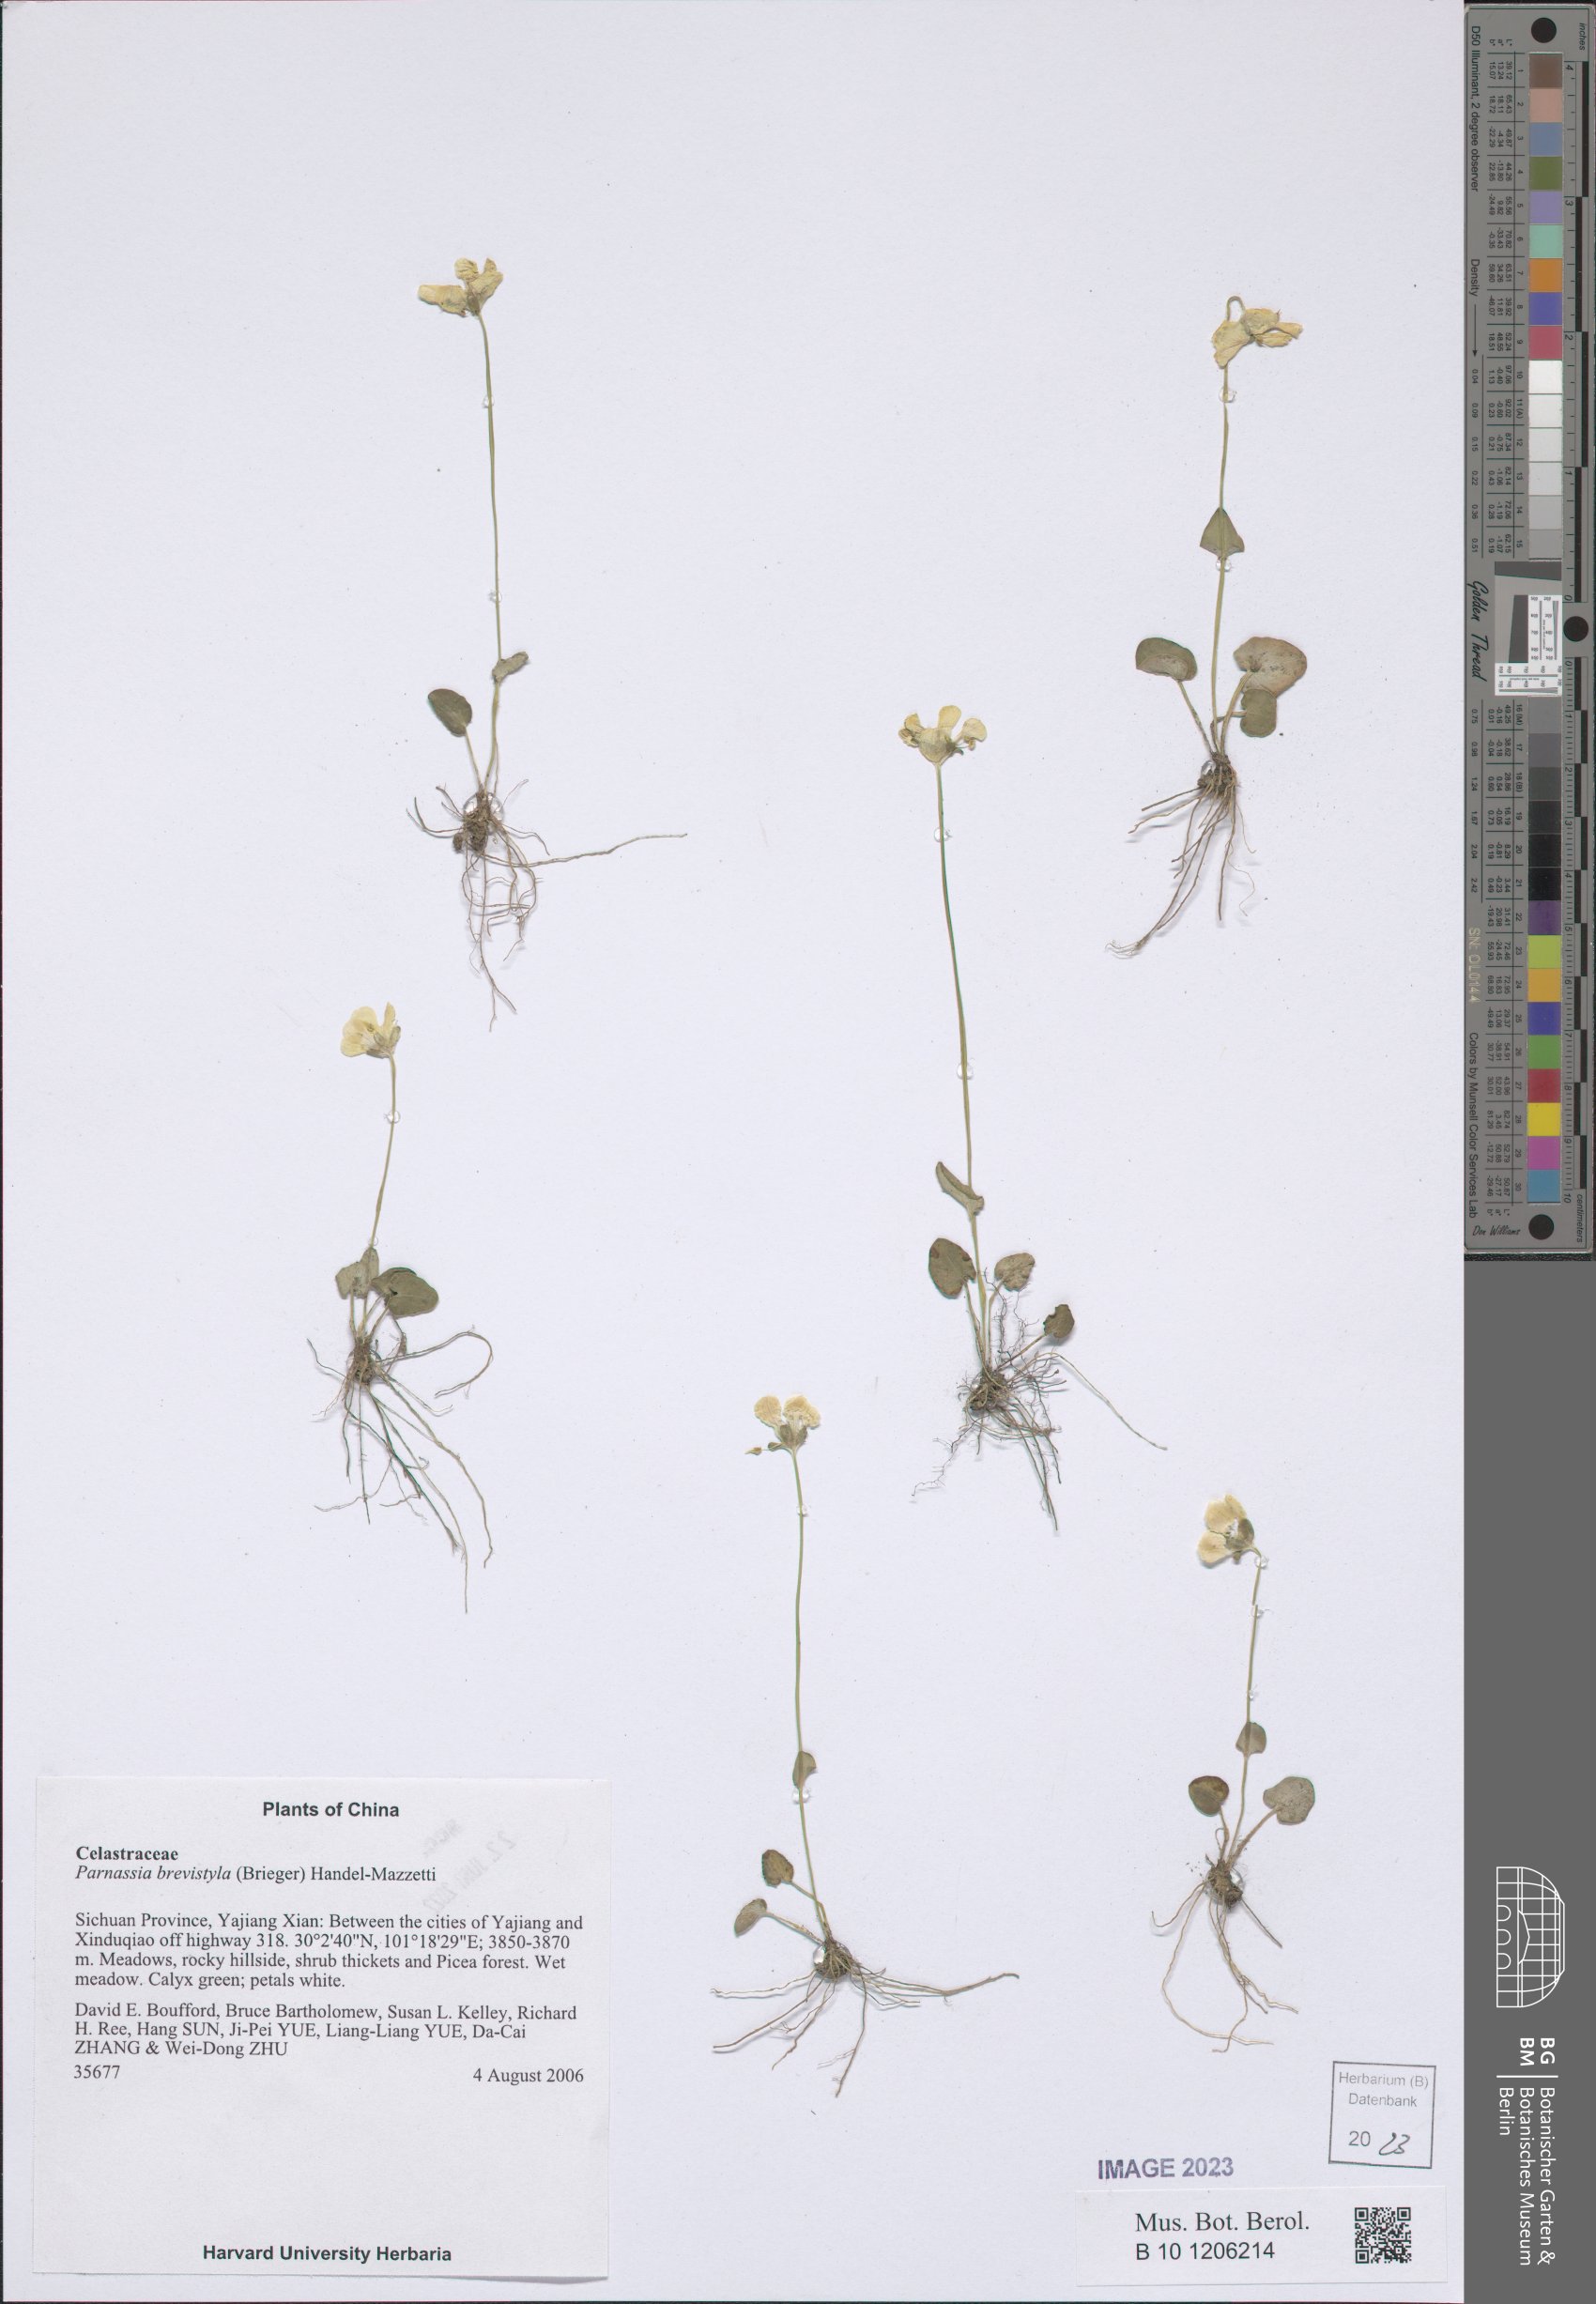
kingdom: Plantae
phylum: Tracheophyta
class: Magnoliopsida
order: Celastrales
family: Parnassiaceae
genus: Parnassia
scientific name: Parnassia delavayi
